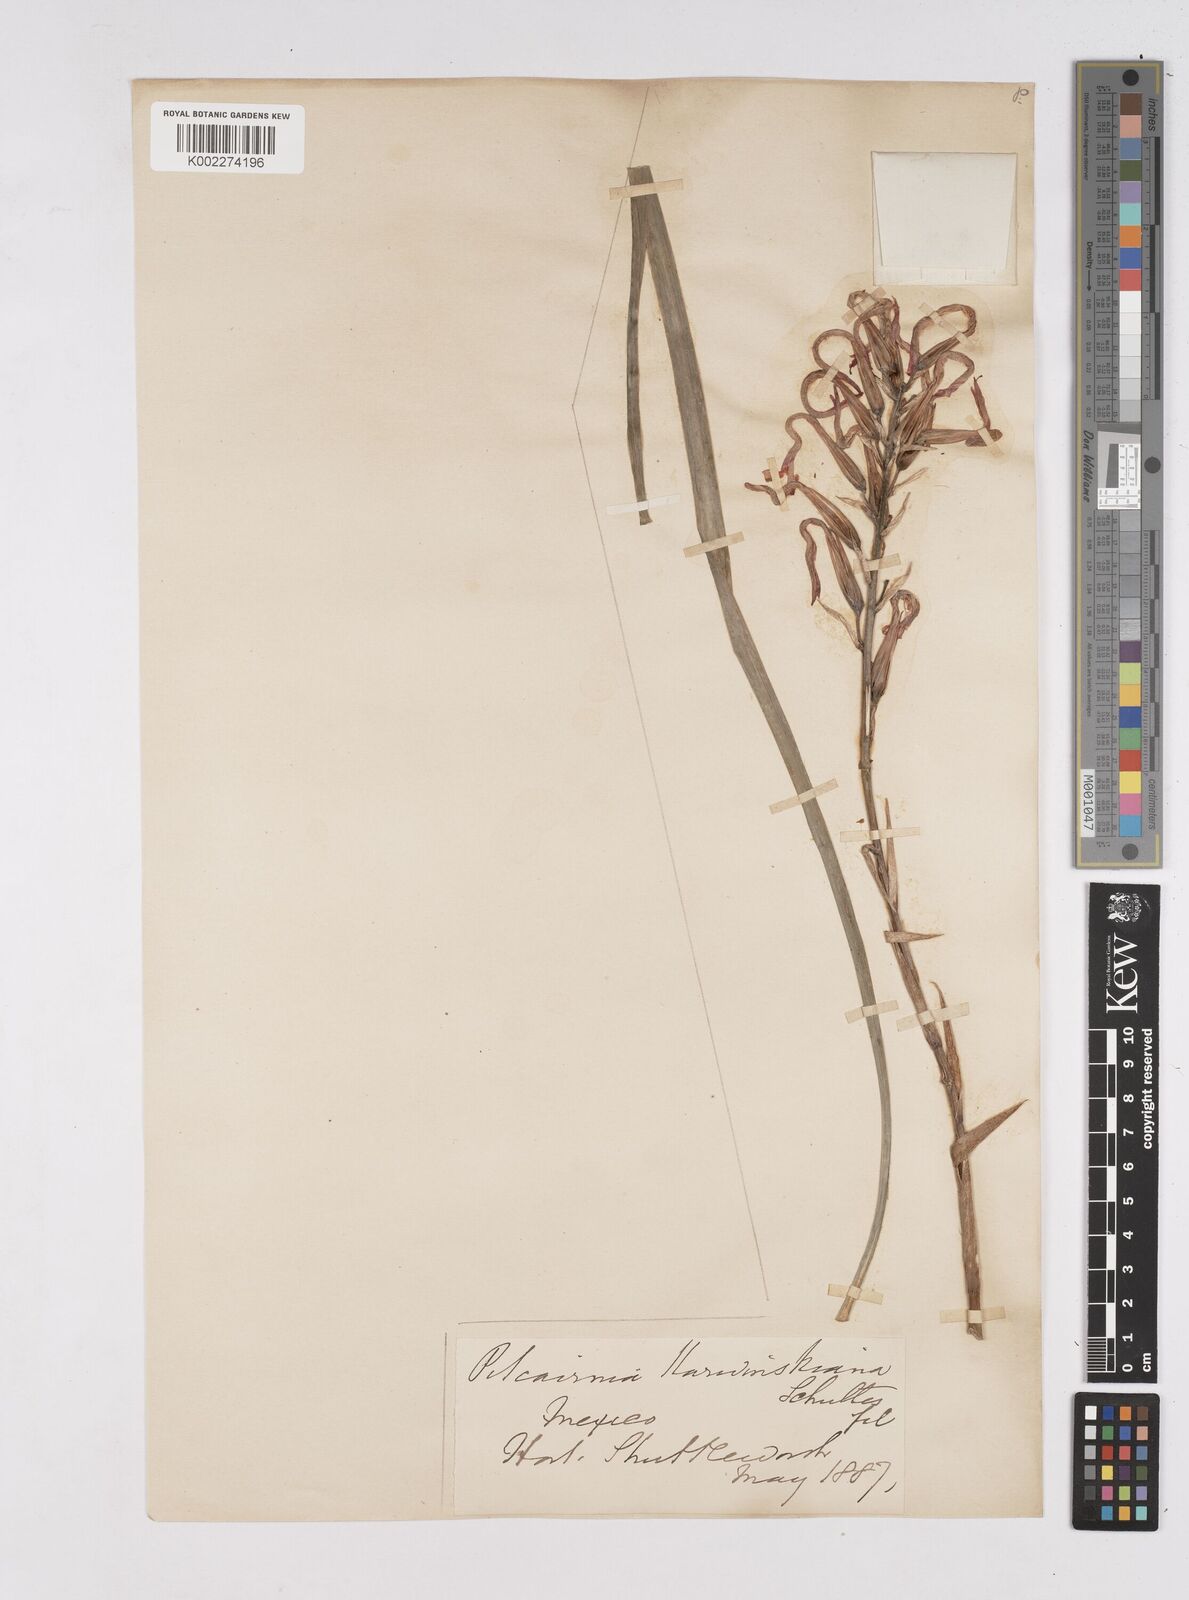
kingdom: Plantae
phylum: Tracheophyta
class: Liliopsida
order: Poales
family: Bromeliaceae
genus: Pitcairnia
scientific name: Pitcairnia ringens
